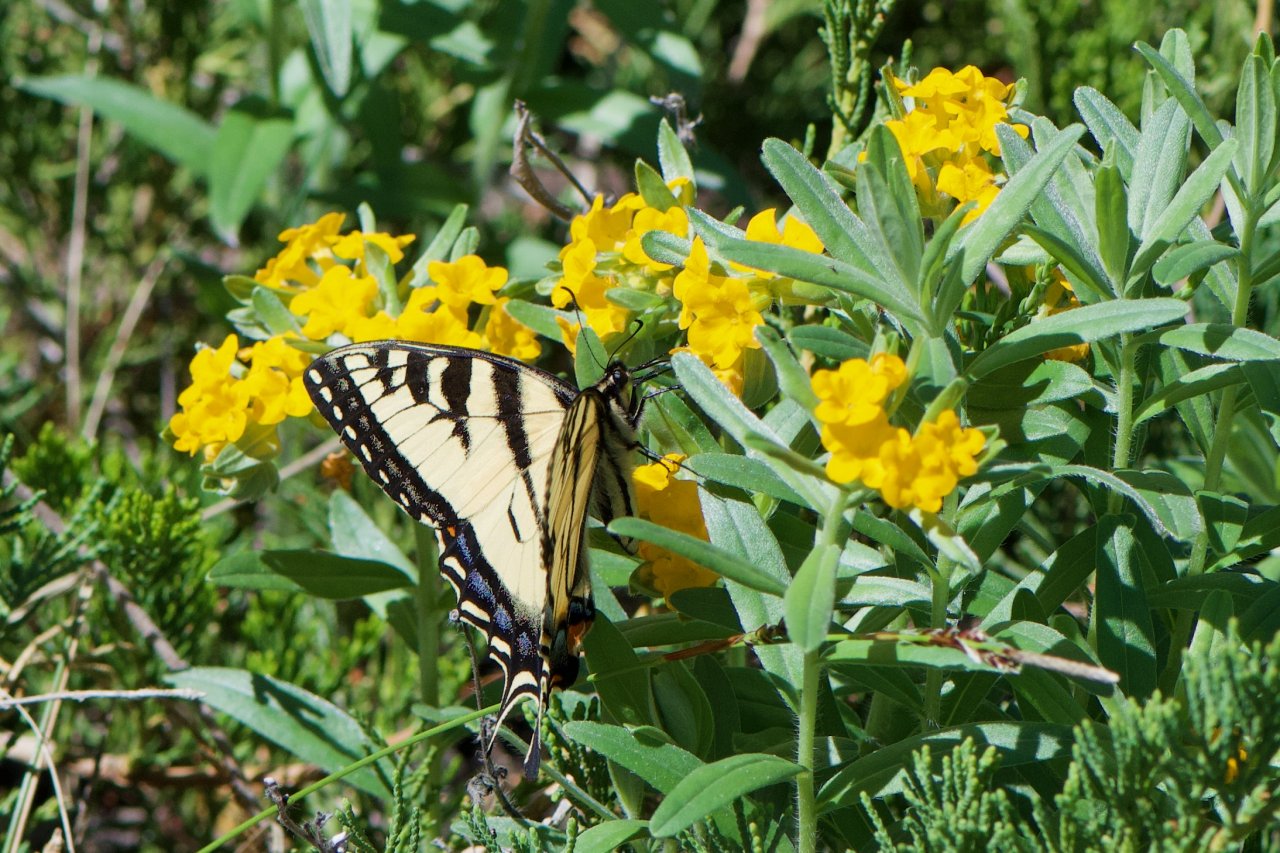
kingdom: Animalia
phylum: Arthropoda
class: Insecta
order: Lepidoptera
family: Papilionidae
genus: Pterourus
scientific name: Pterourus canadensis
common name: Canadian Tiger Swallowtail
